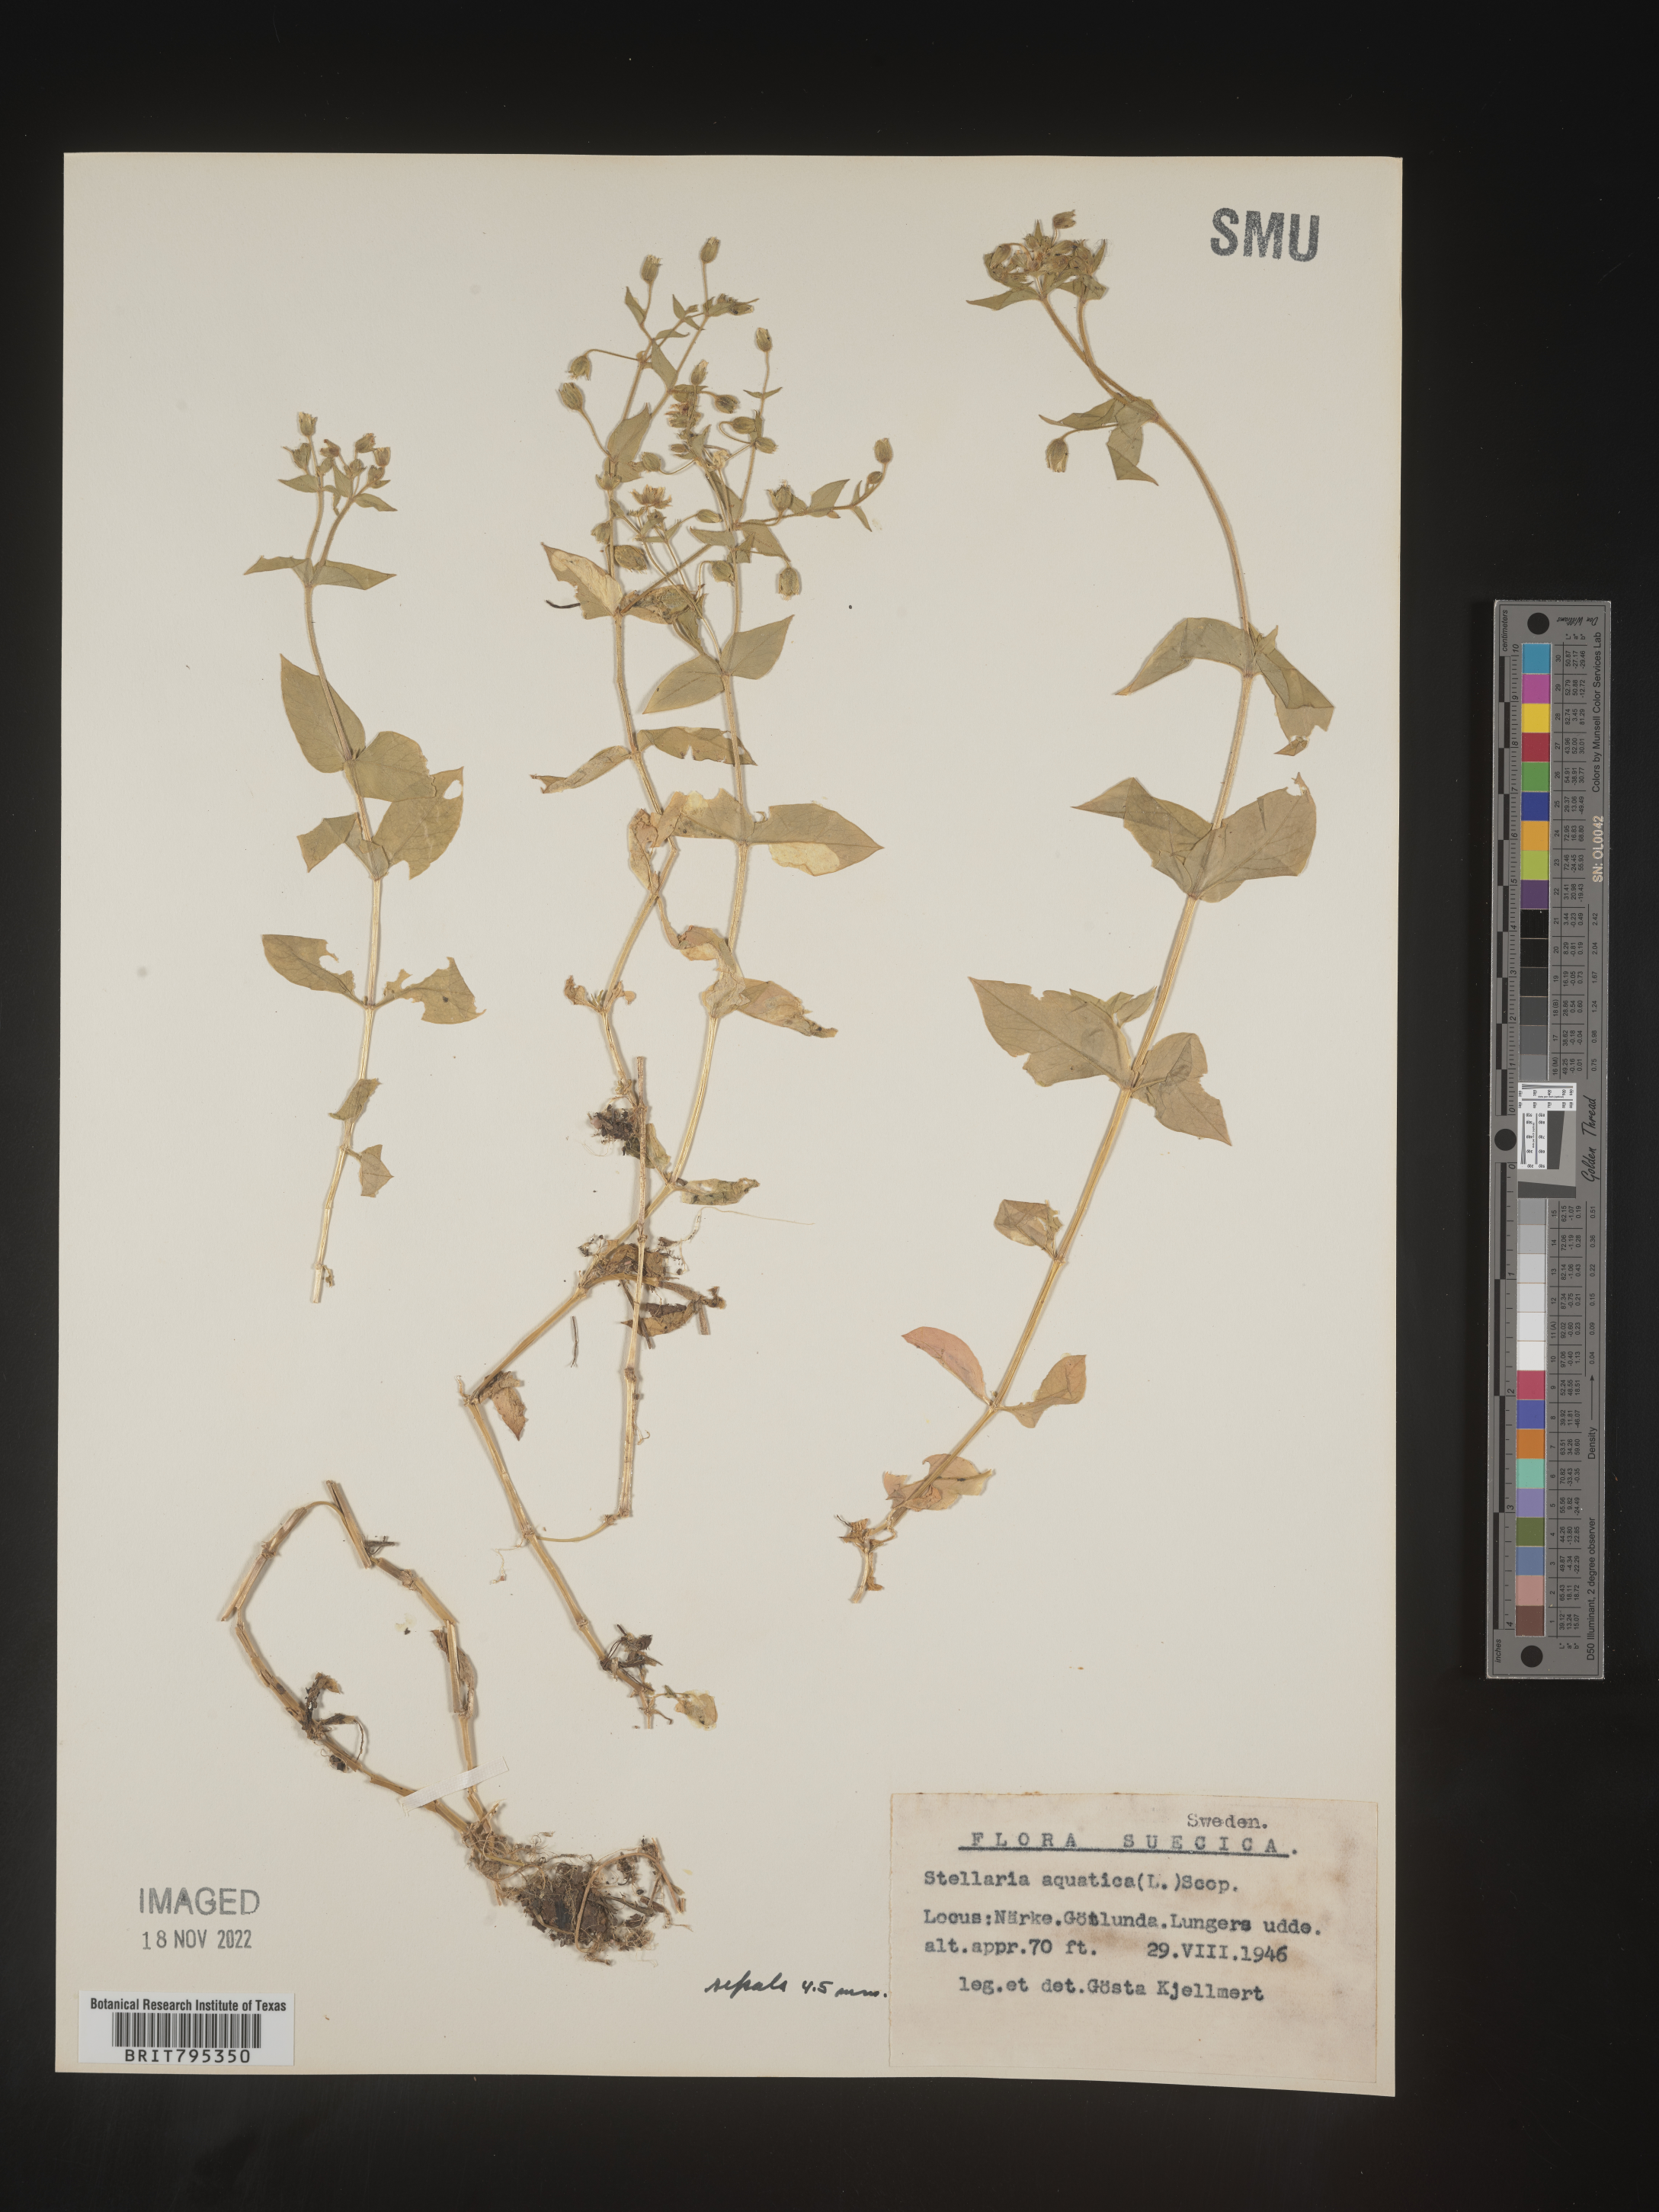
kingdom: Plantae
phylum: Tracheophyta
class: Magnoliopsida
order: Caryophyllales
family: Caryophyllaceae
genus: Stellaria
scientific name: Stellaria
